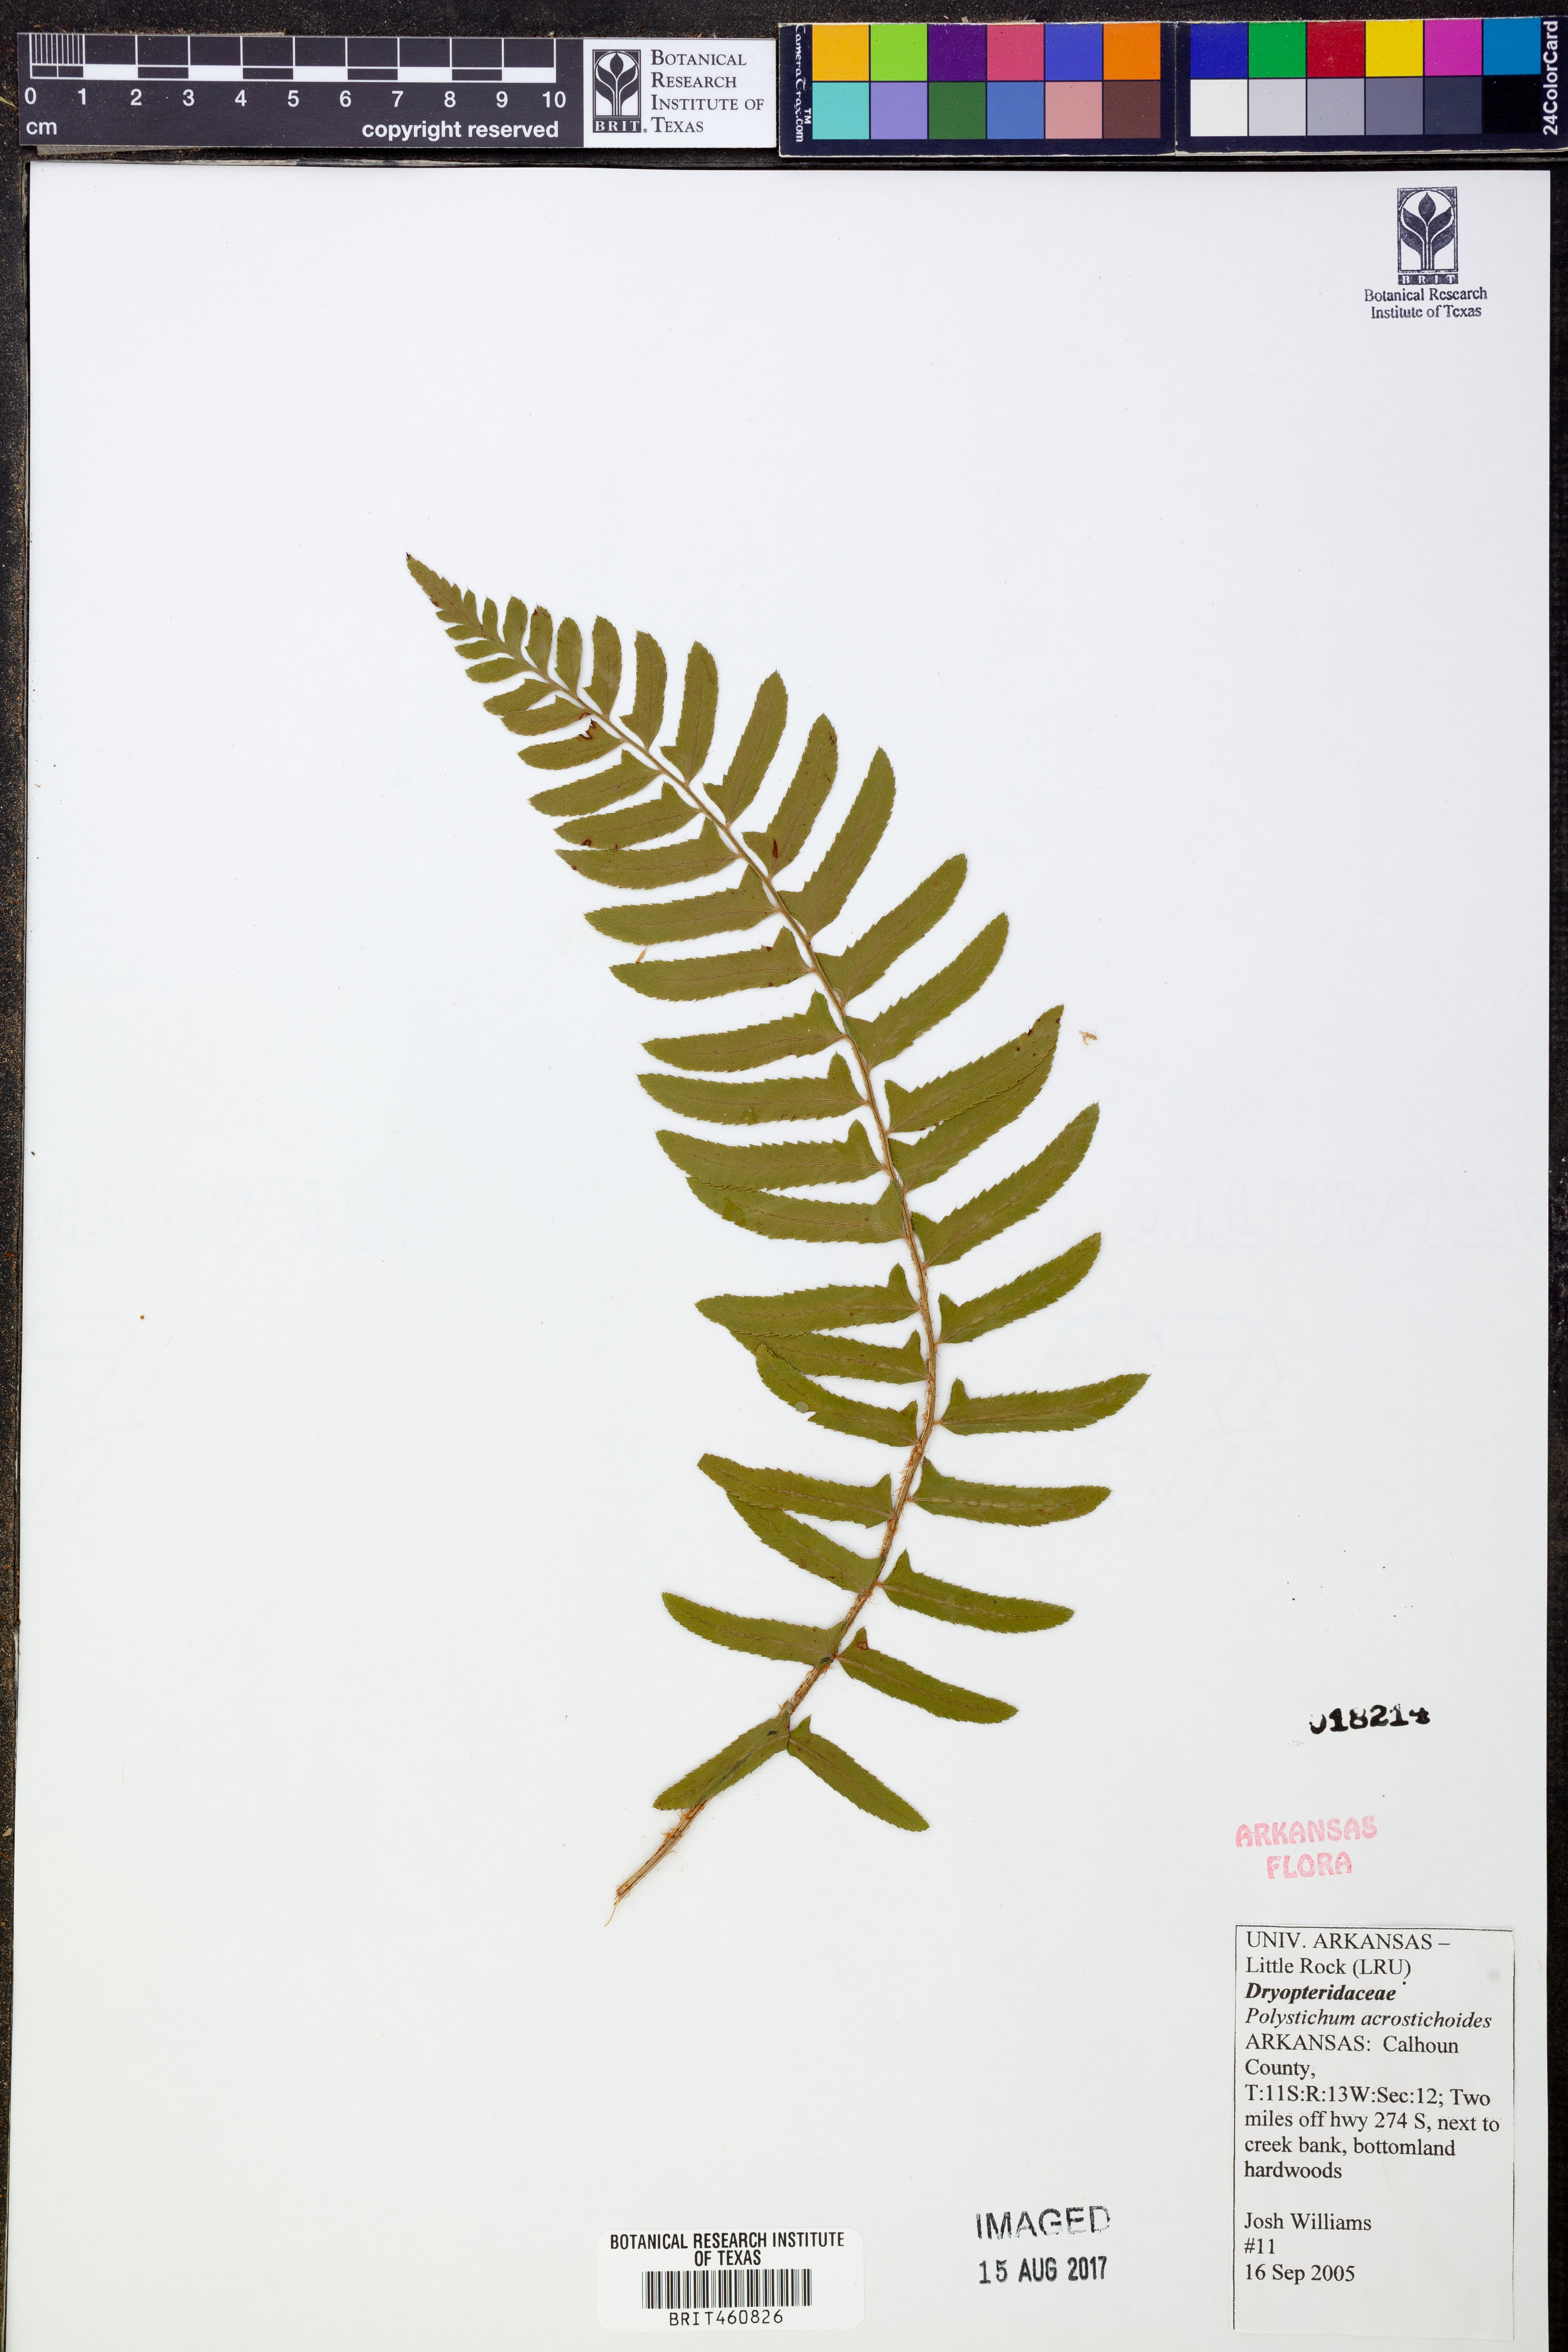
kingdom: Plantae
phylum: Tracheophyta
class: Polypodiopsida
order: Polypodiales
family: Dryopteridaceae
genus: Polystichum
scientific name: Polystichum acrostichoides
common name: Christmas fern
